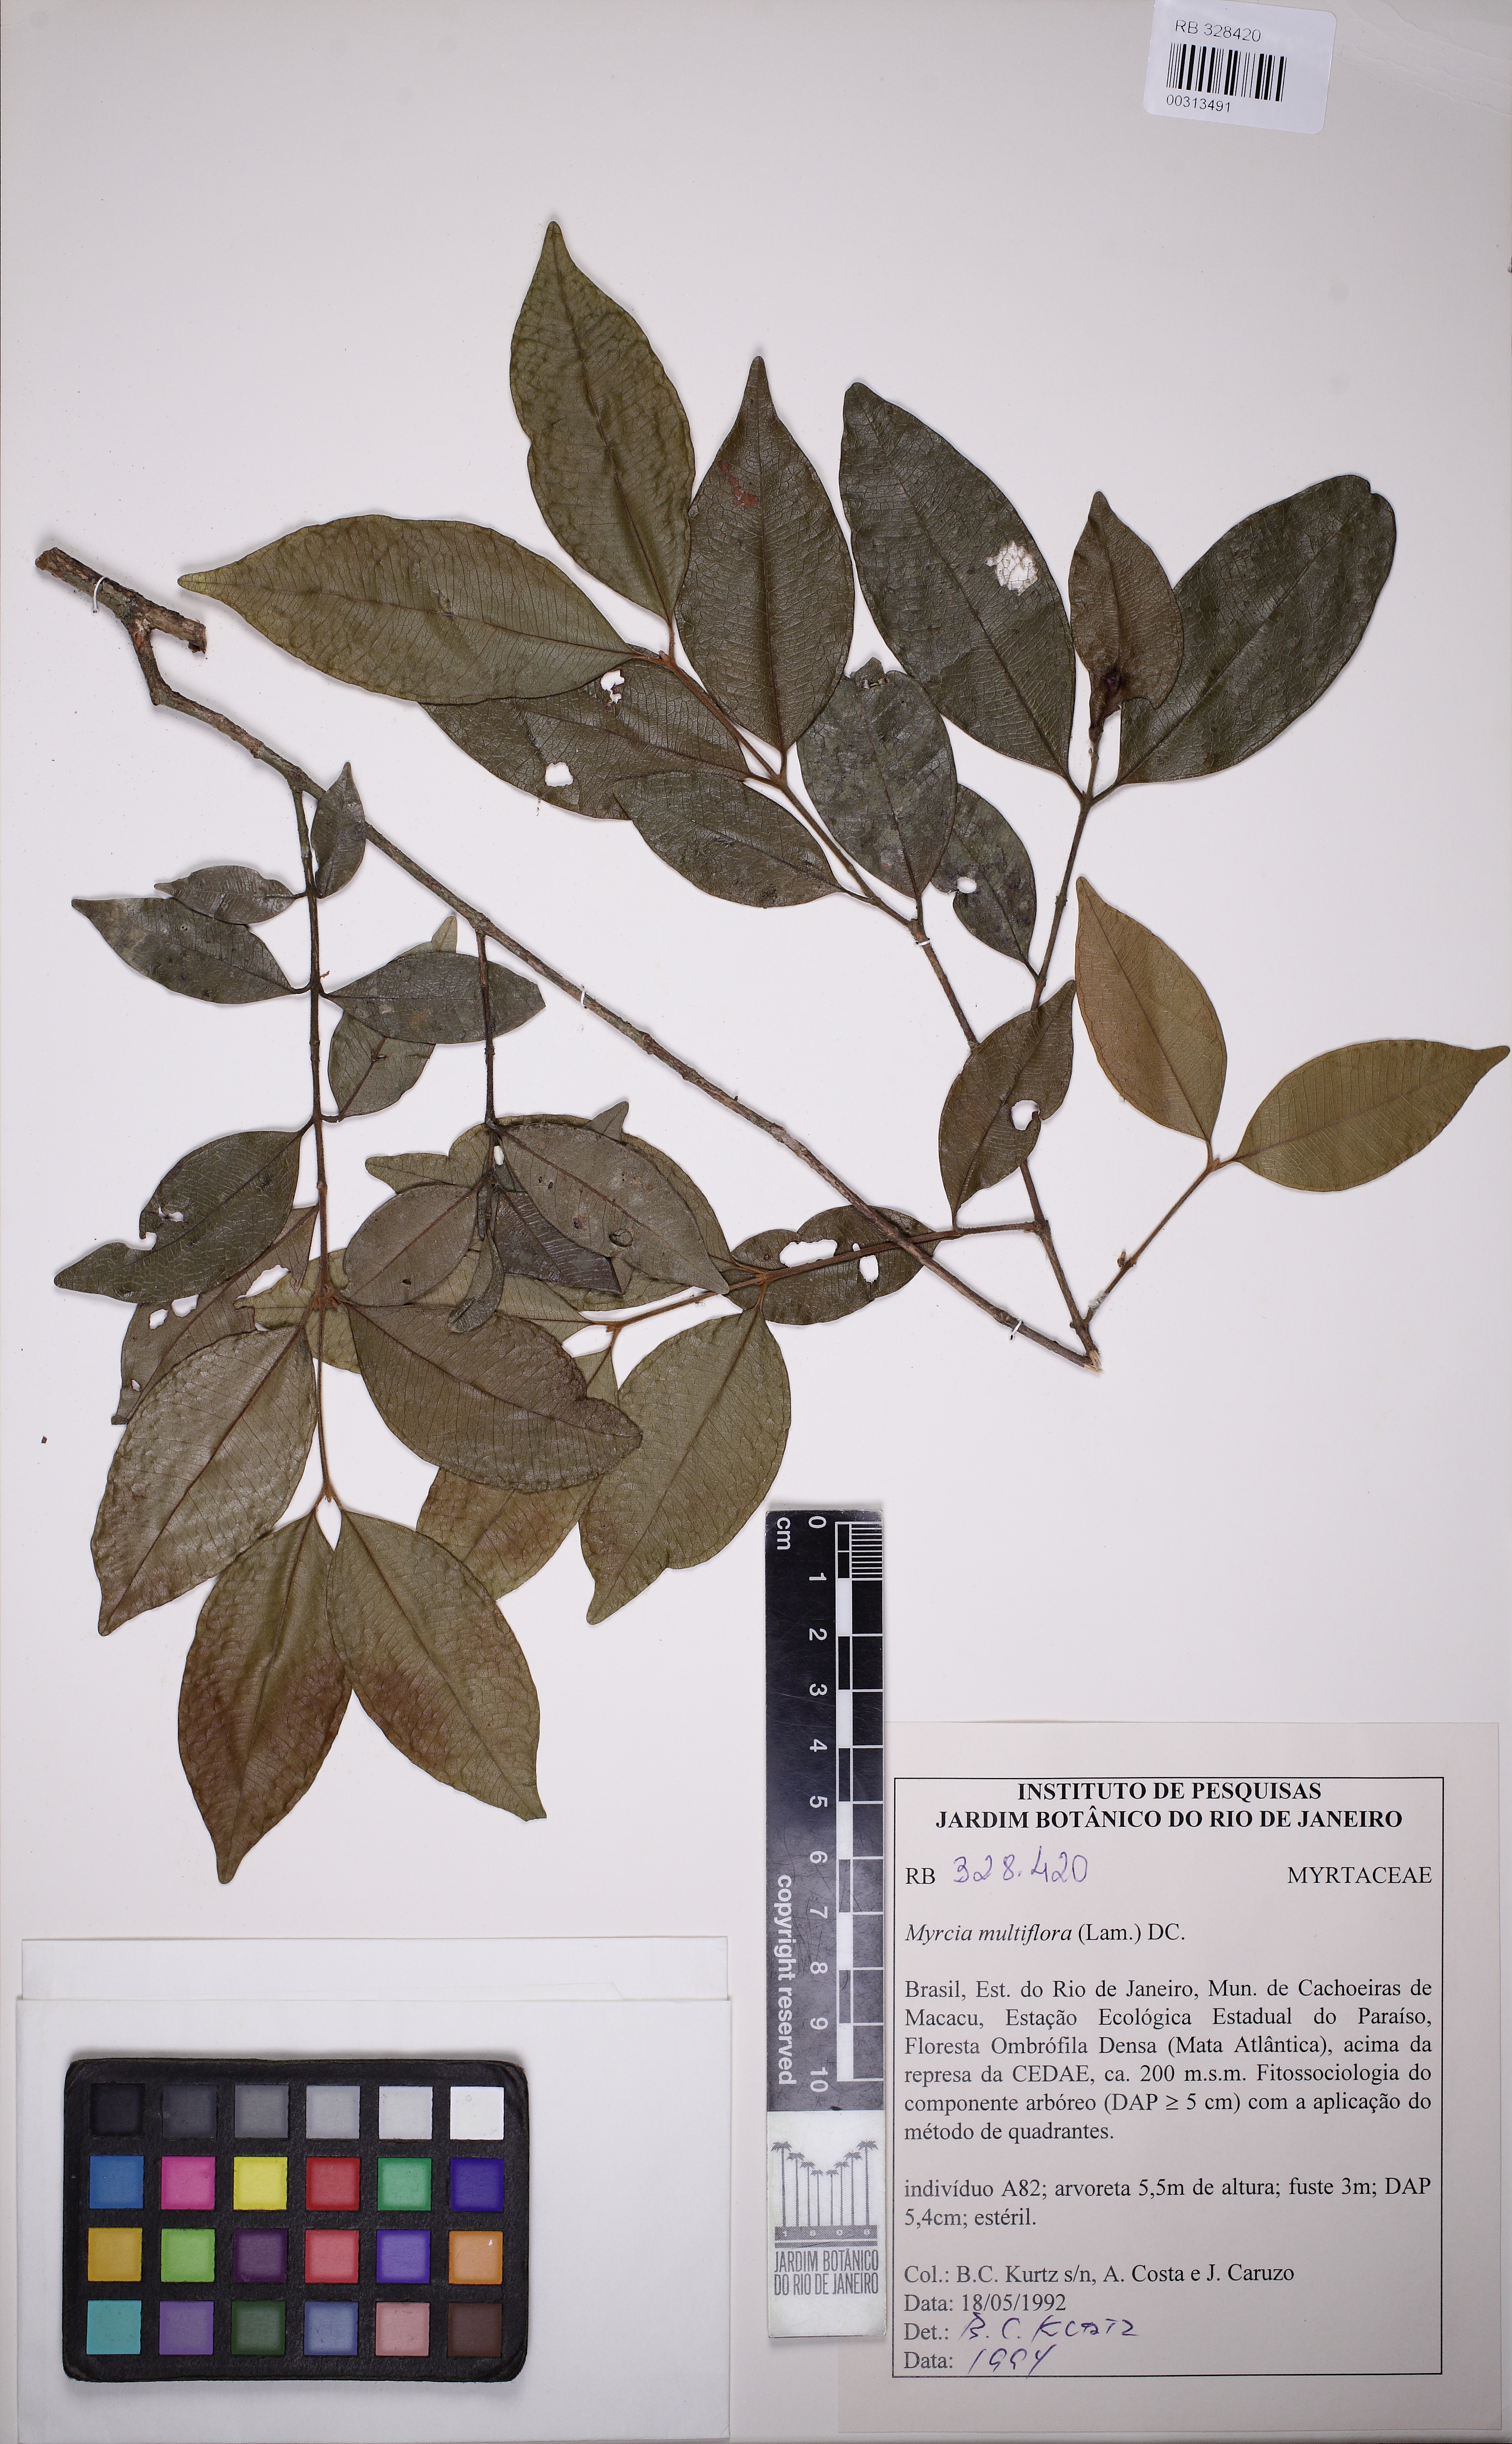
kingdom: Plantae
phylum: Tracheophyta
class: Magnoliopsida
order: Myrtales
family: Myrtaceae
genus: Myrcia
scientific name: Myrcia aethusa
